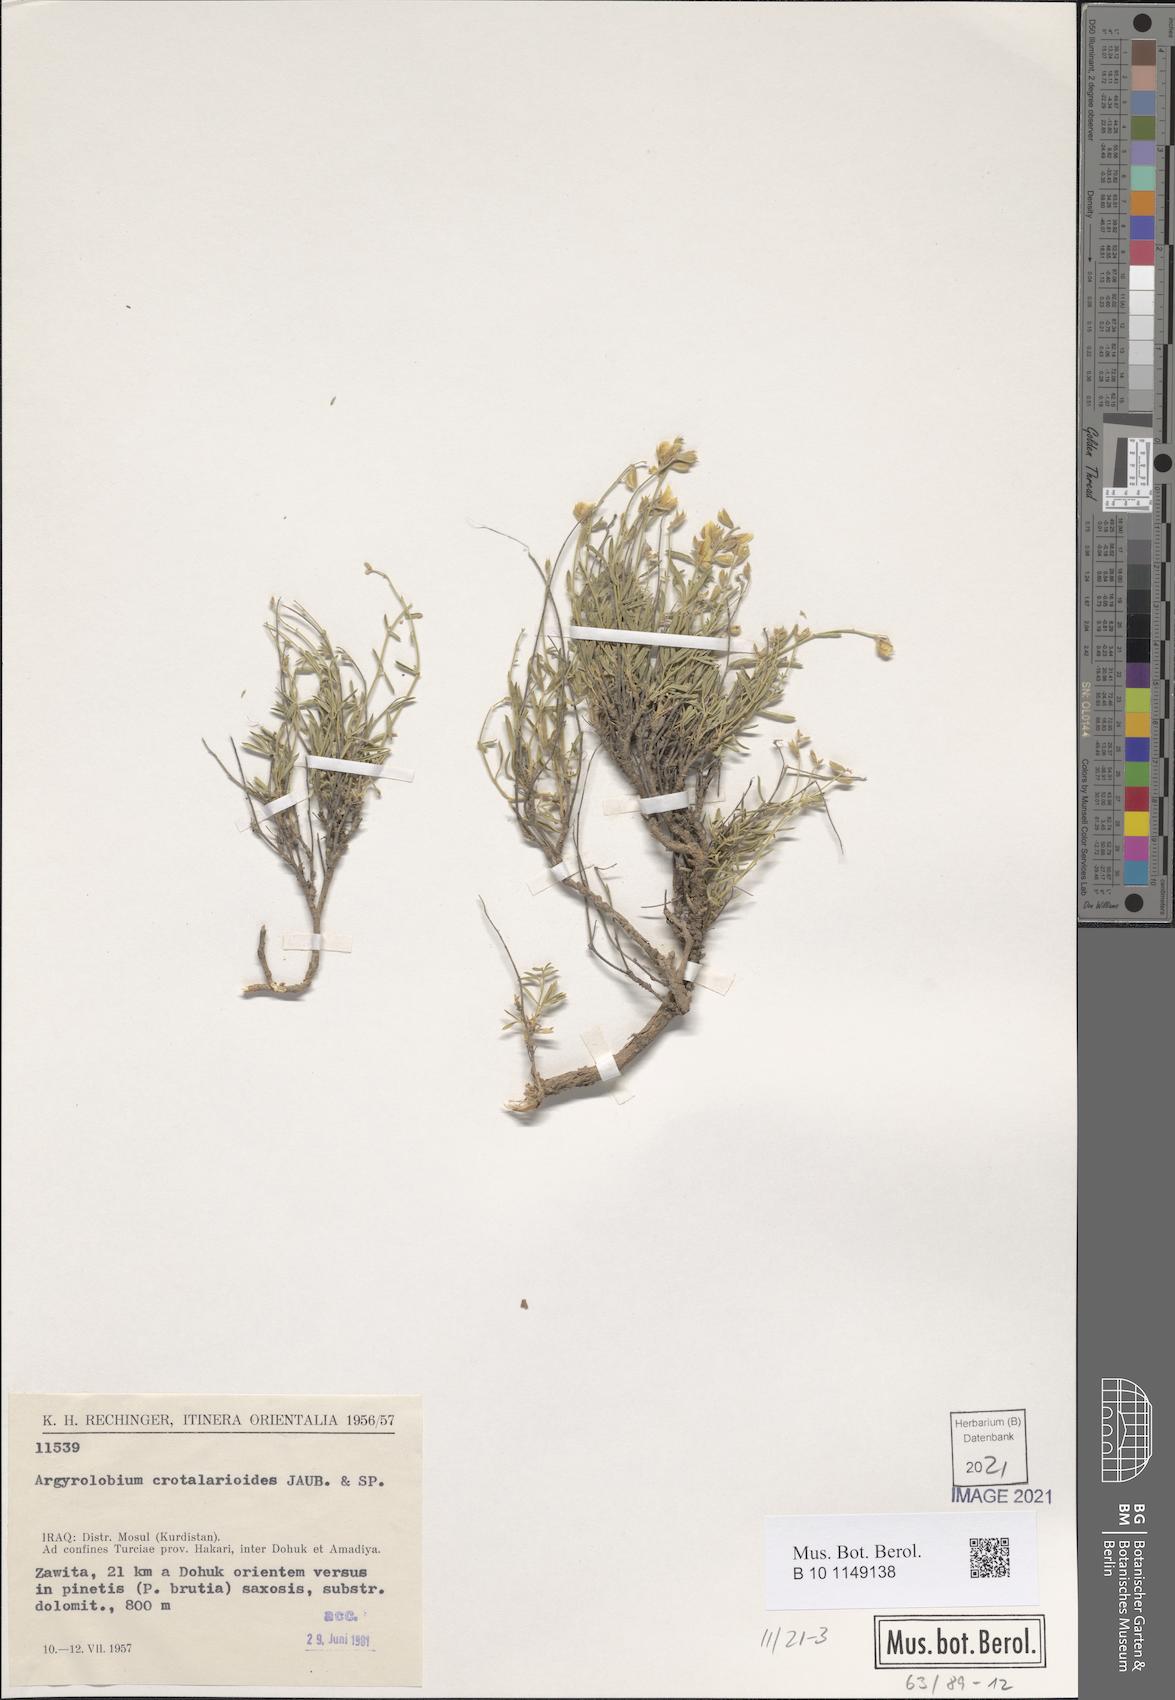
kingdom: Plantae
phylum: Tracheophyta
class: Magnoliopsida
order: Fabales
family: Fabaceae
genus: Argyrolobium
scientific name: Argyrolobium crotalarioides
